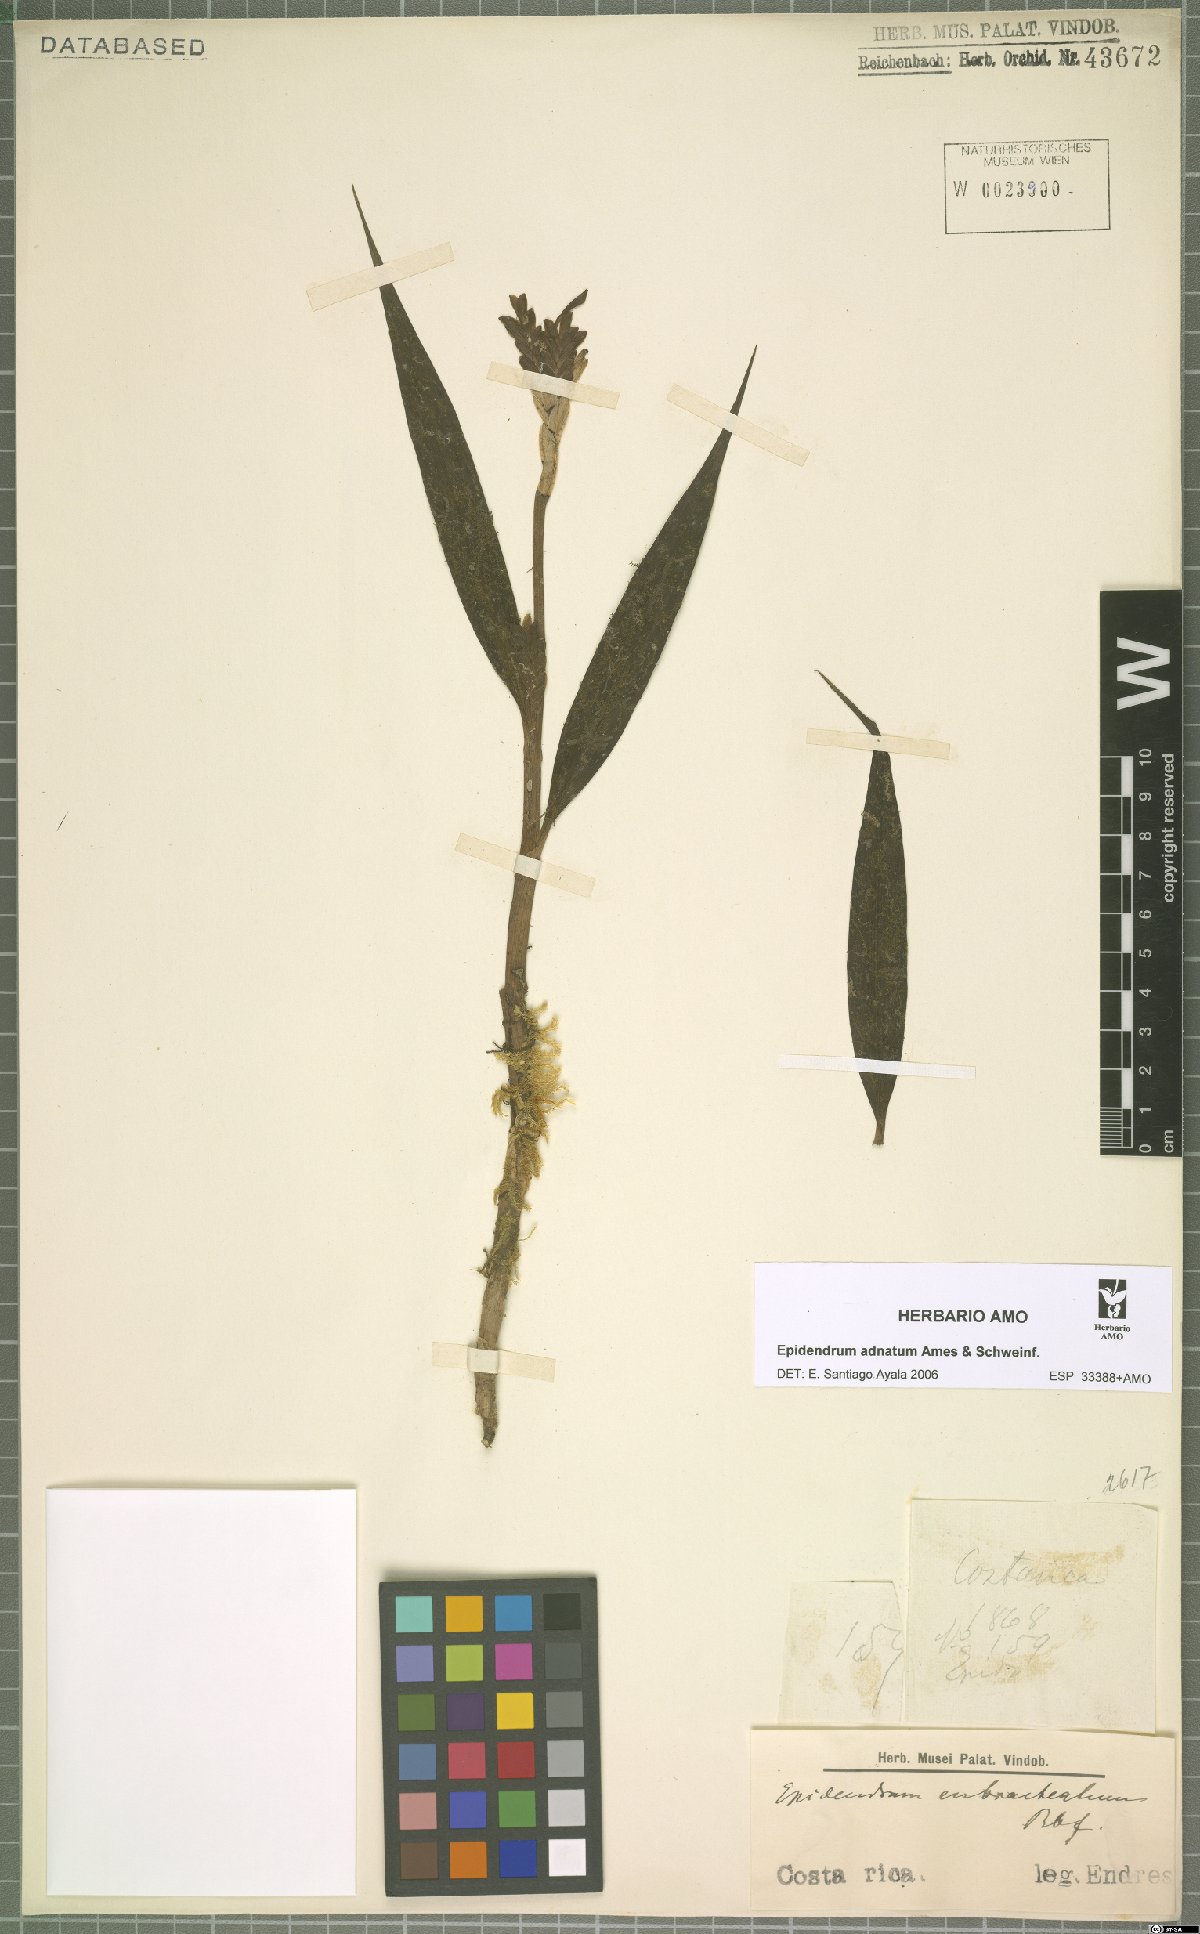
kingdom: Plantae
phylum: Tracheophyta
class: Liliopsida
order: Asparagales
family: Orchidaceae
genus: Epidendrum
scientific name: Epidendrum adnatum
